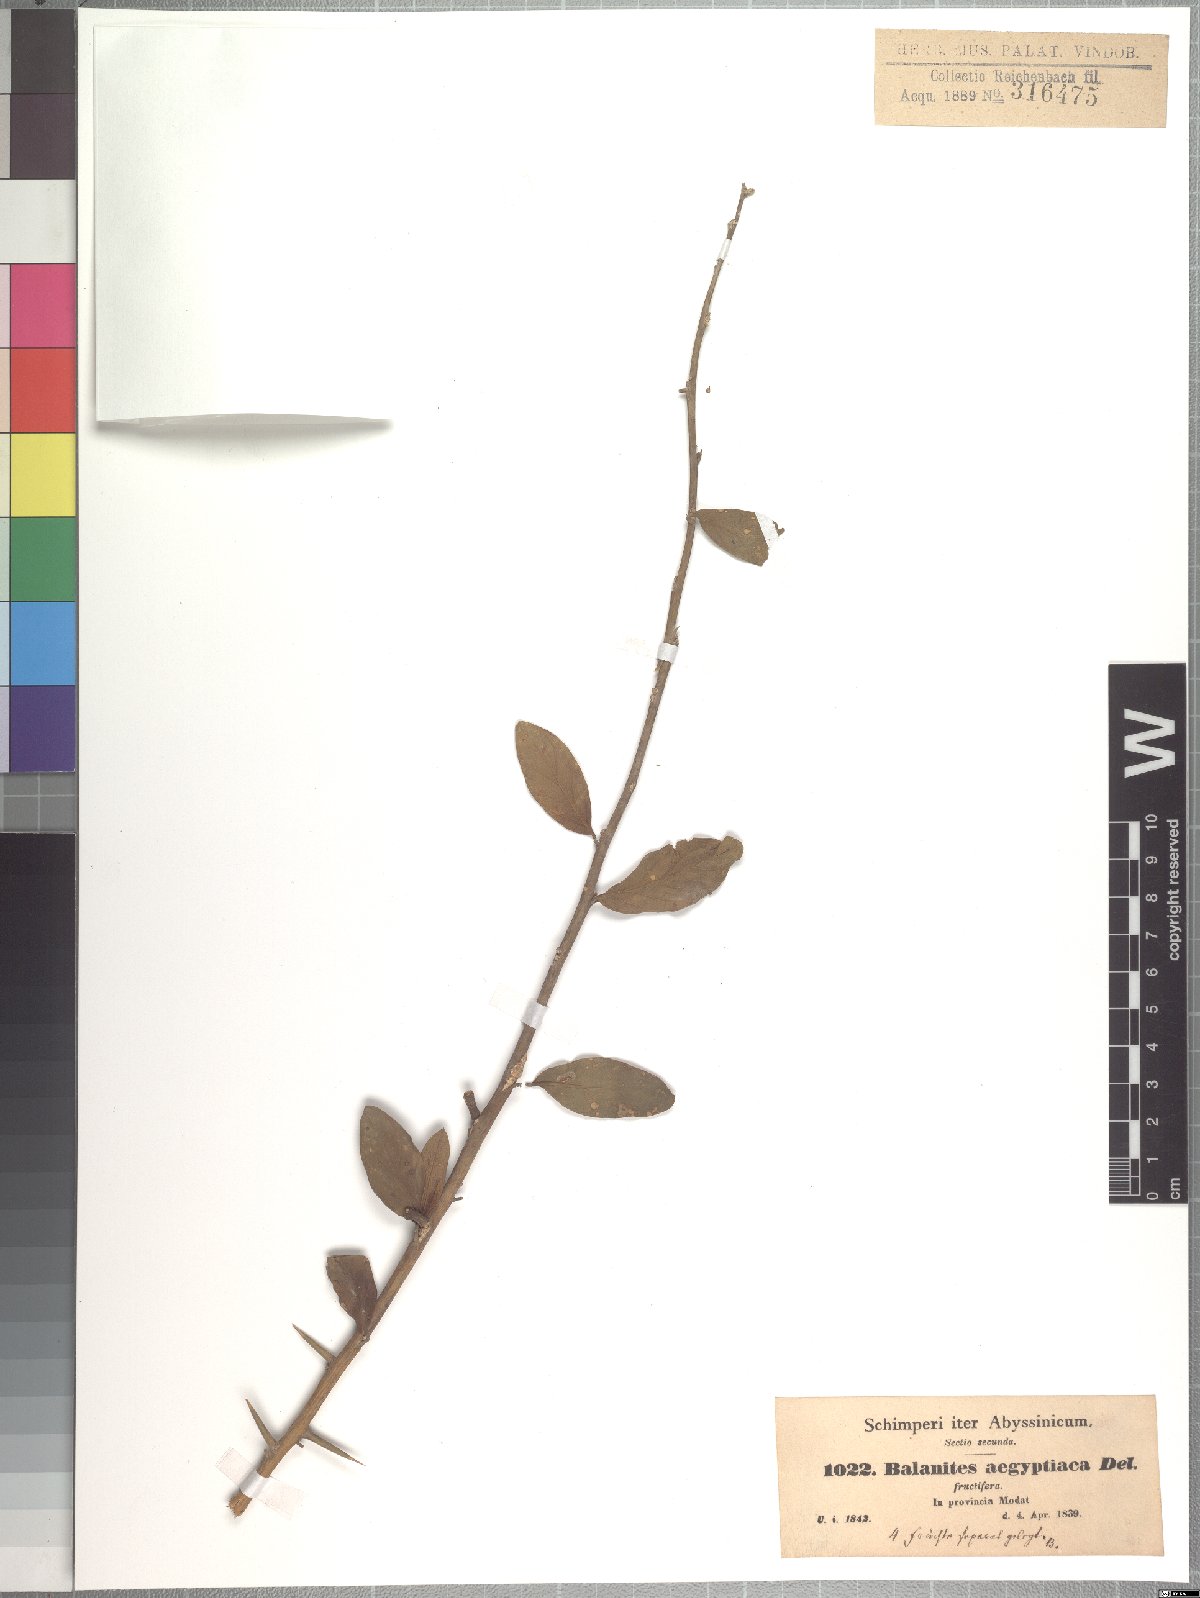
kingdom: Plantae
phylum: Tracheophyta
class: Magnoliopsida
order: Zygophyllales
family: Zygophyllaceae
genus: Balanites
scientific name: Balanites aegyptiaca
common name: Balanites
